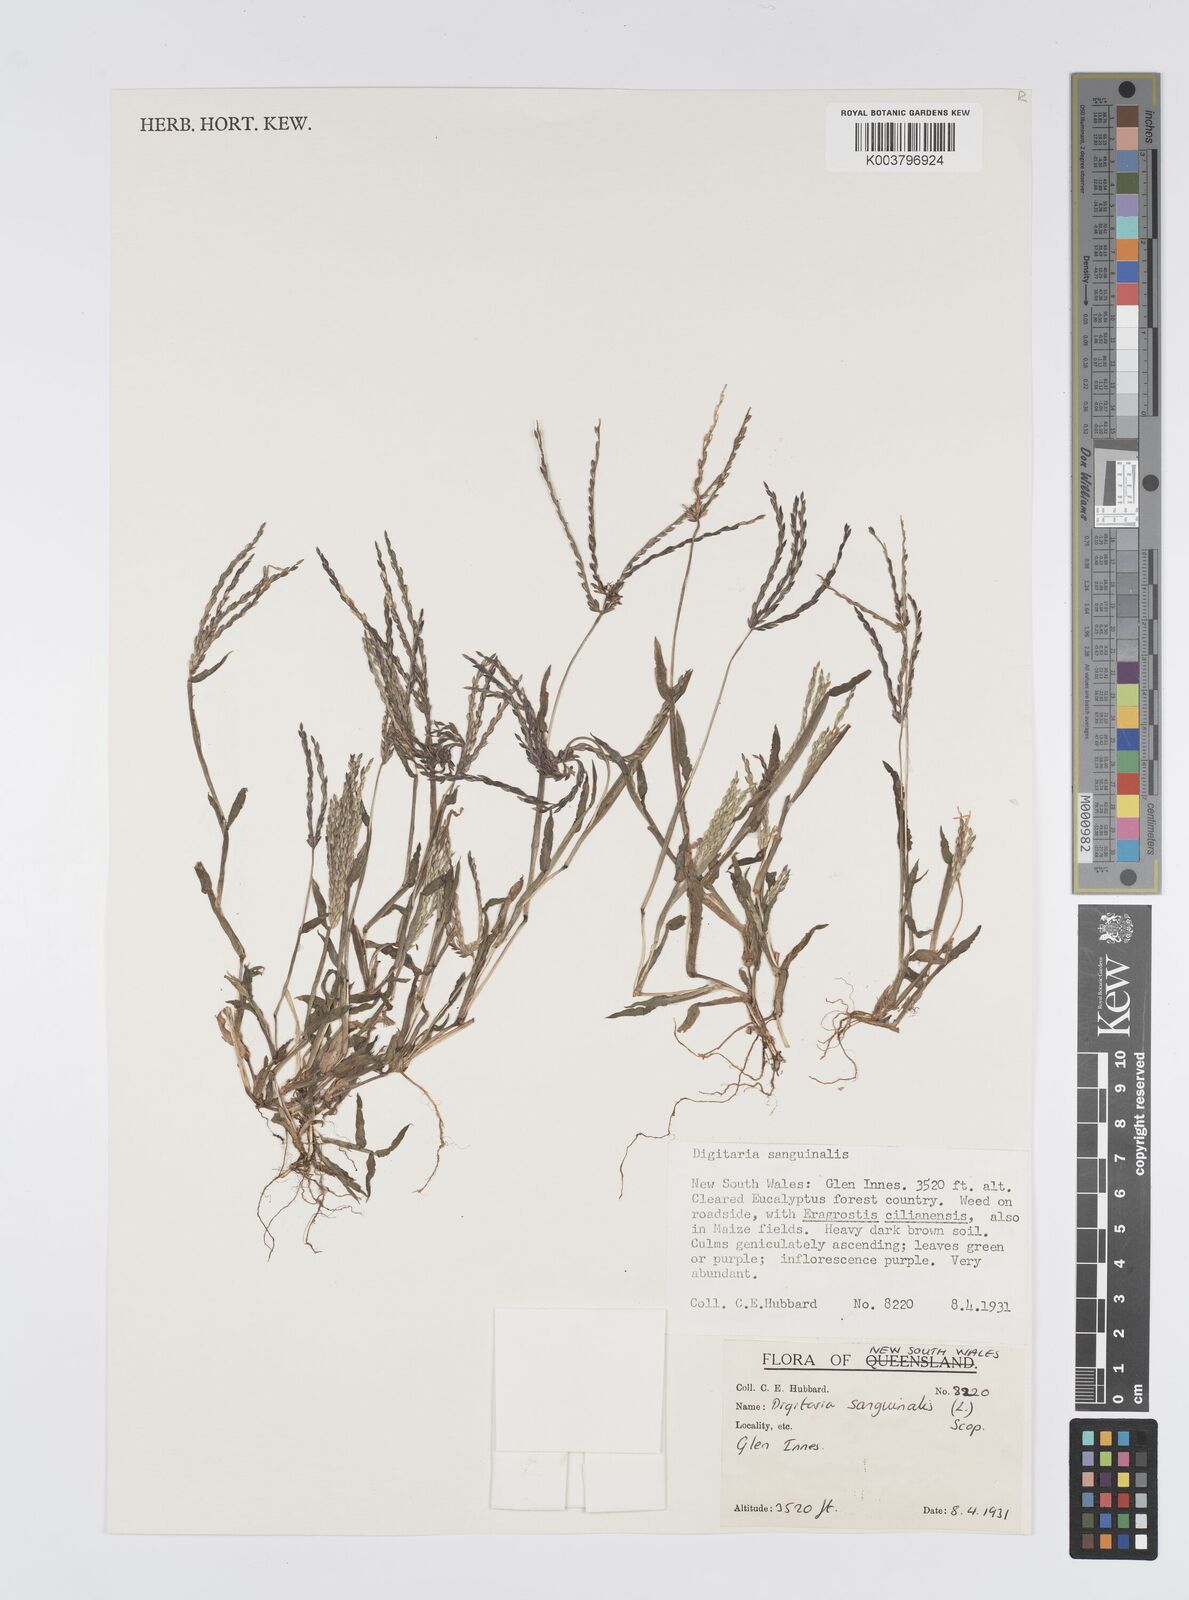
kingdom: Plantae
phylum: Tracheophyta
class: Liliopsida
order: Poales
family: Poaceae
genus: Digitaria
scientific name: Digitaria sanguinalis
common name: Hairy crabgrass
